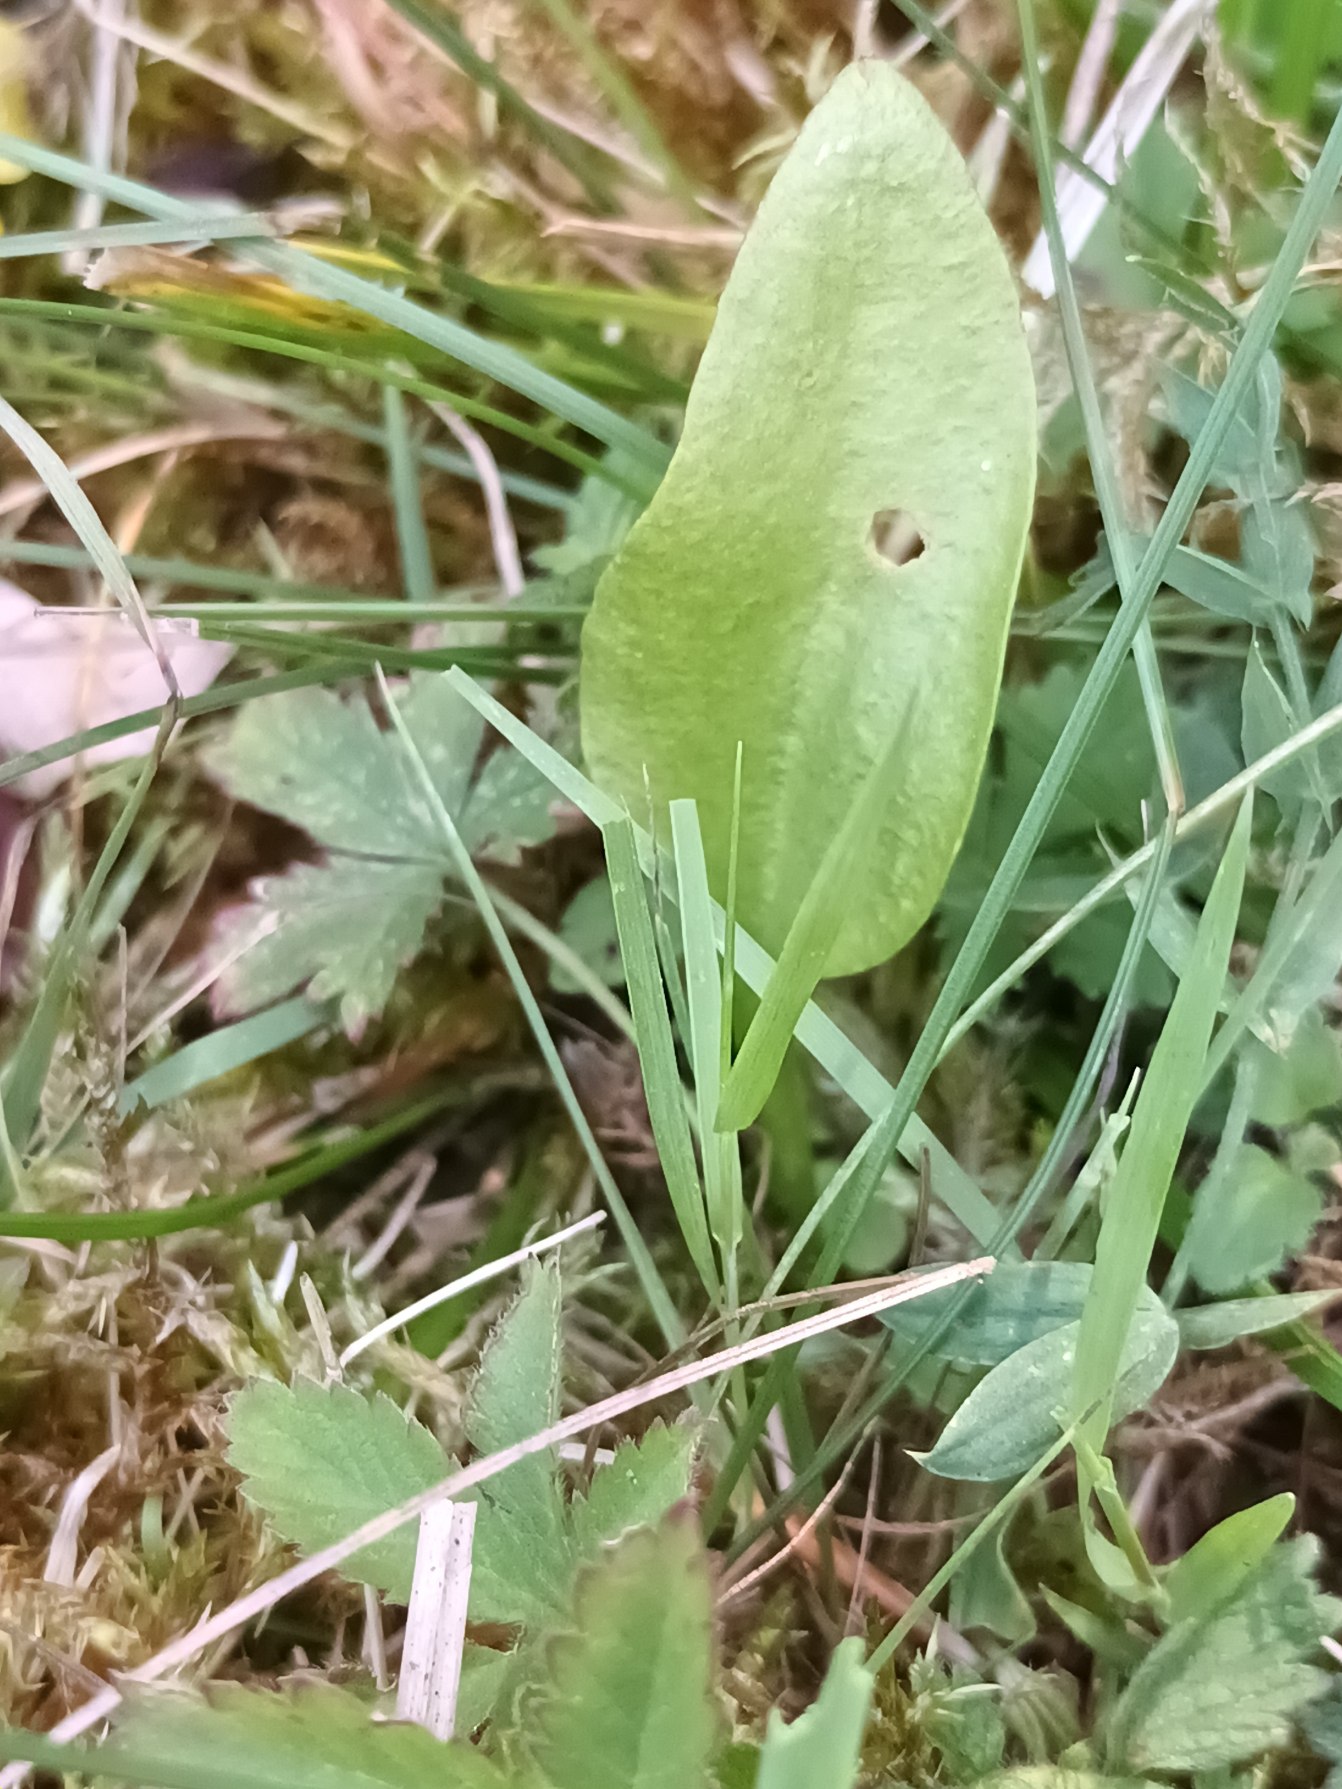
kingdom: Plantae
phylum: Tracheophyta
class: Polypodiopsida
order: Ophioglossales
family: Ophioglossaceae
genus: Ophioglossum
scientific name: Ophioglossum vulgatum
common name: Slangetunge
